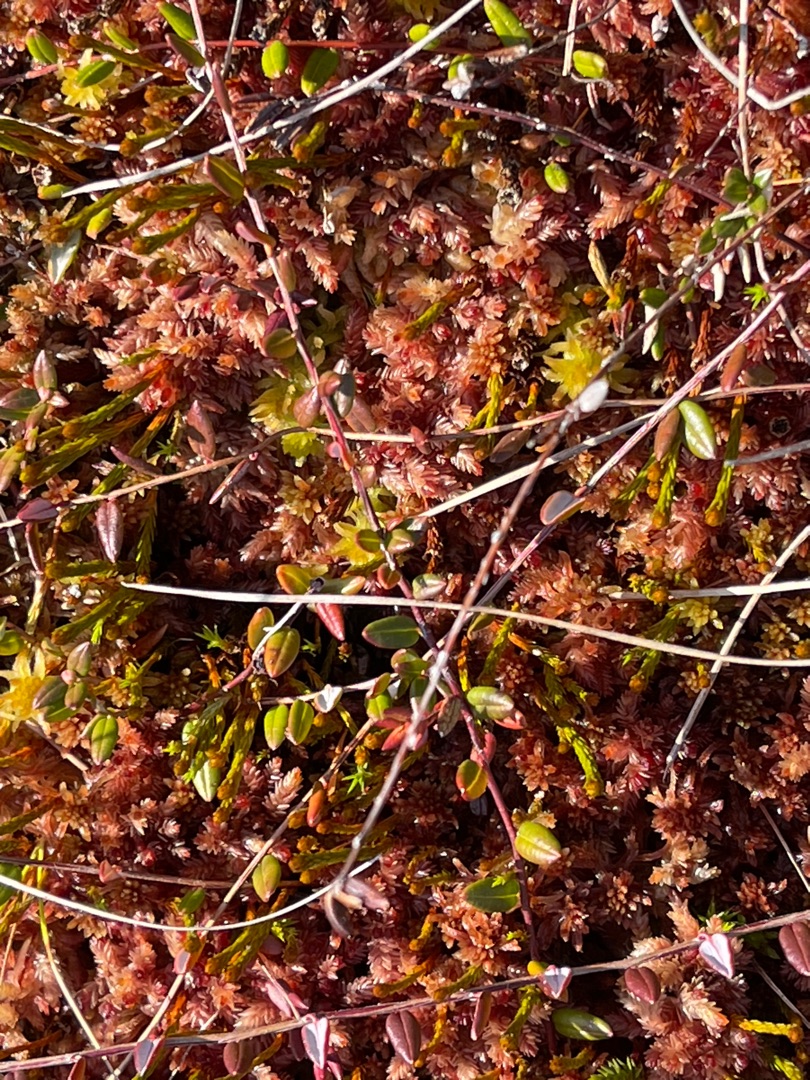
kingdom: Plantae
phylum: Tracheophyta
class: Magnoliopsida
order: Ericales
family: Ericaceae
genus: Vaccinium
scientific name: Vaccinium oxycoccos
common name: Tranebær
